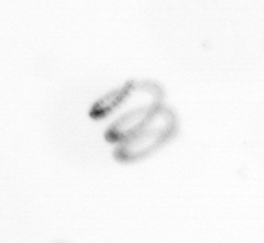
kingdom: Chromista
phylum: Ochrophyta
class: Bacillariophyceae
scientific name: Bacillariophyceae
